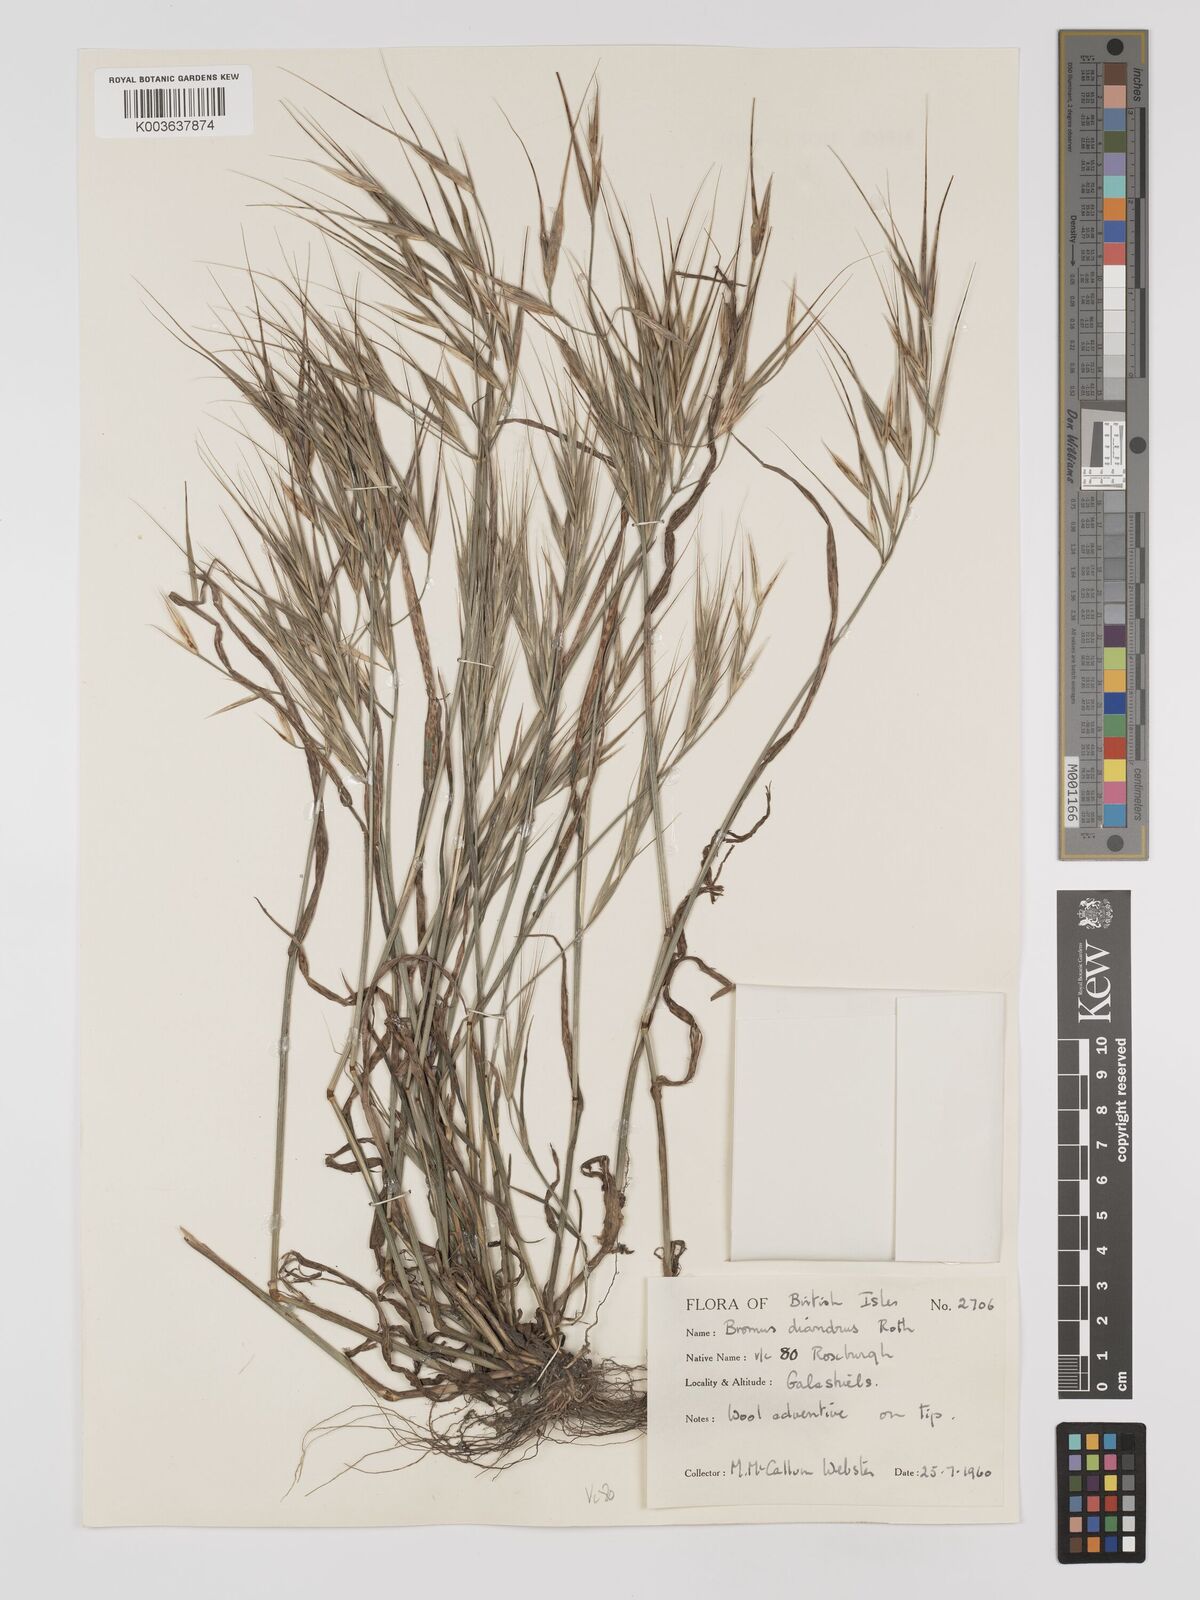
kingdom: Plantae
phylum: Tracheophyta
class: Liliopsida
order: Poales
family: Poaceae
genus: Bromus
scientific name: Bromus
